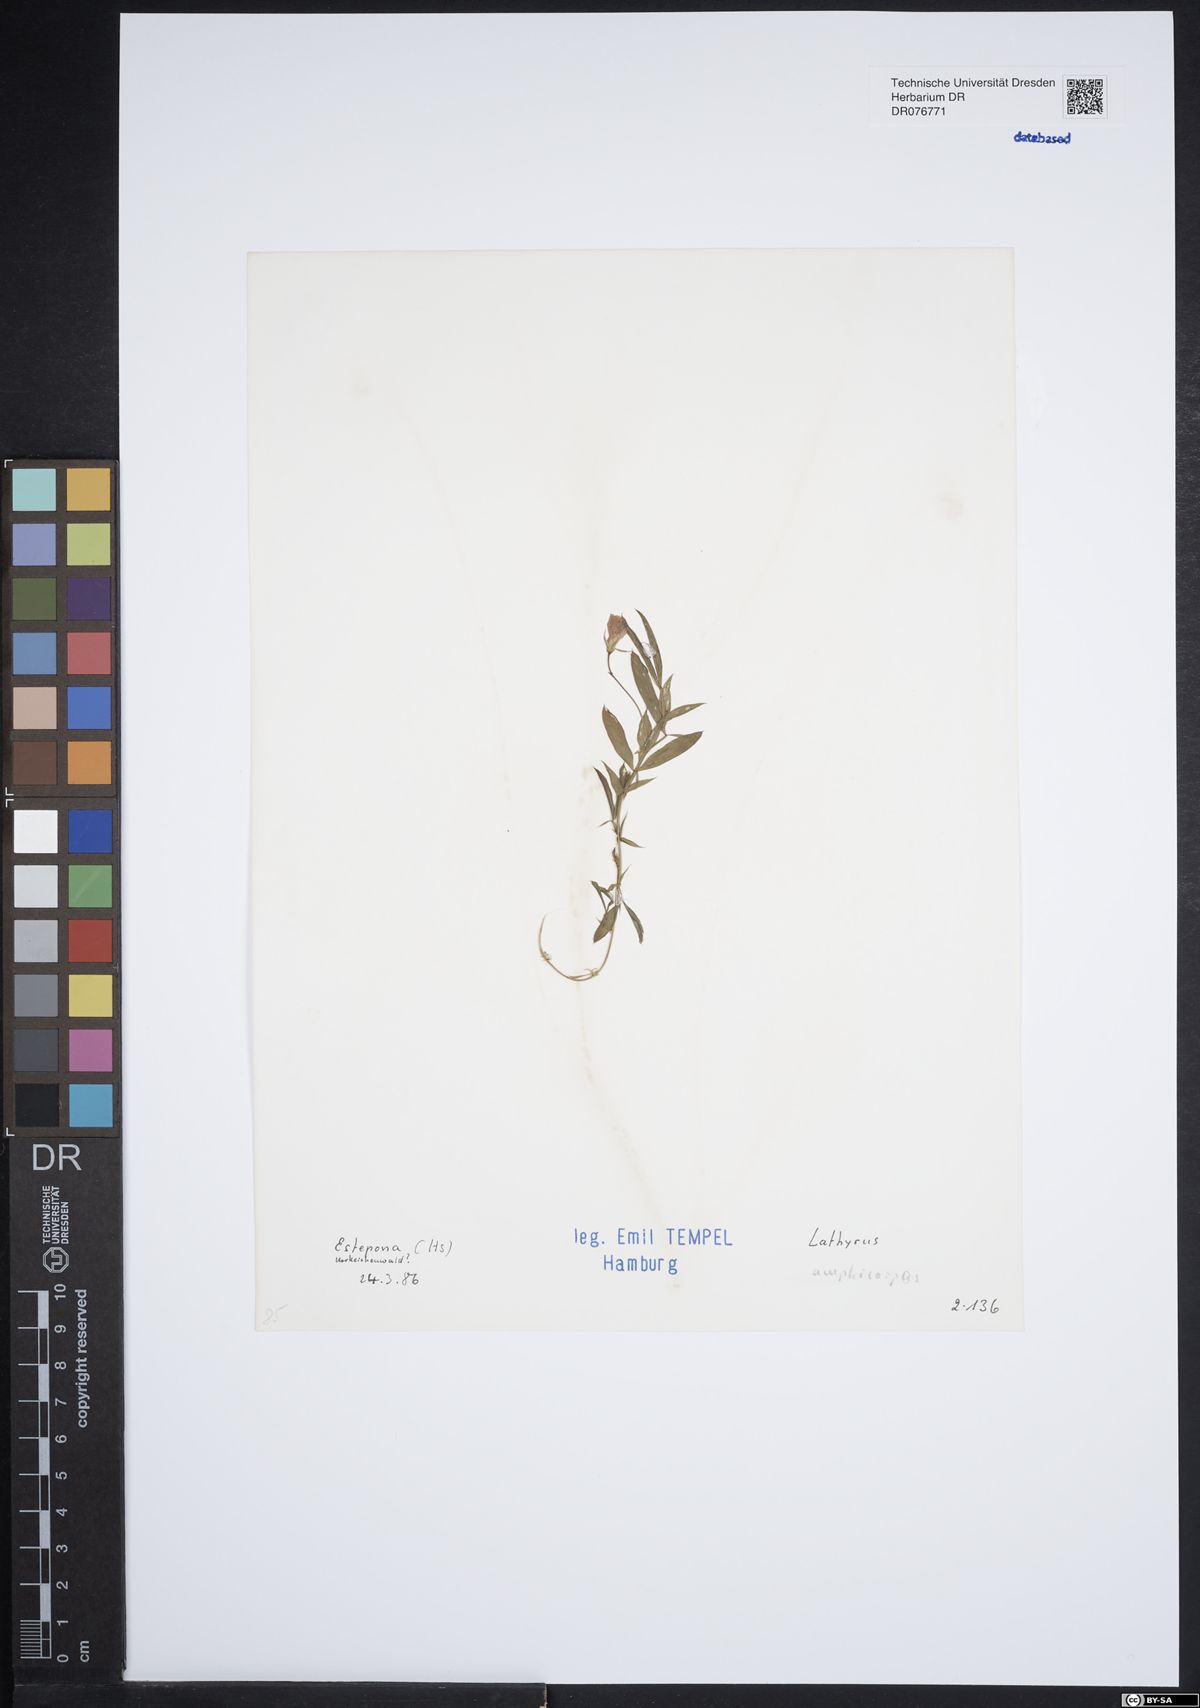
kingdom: Plantae
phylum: Tracheophyta
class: Magnoliopsida
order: Fabales
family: Fabaceae
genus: Lathyrus
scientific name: Lathyrus amphicarpos
